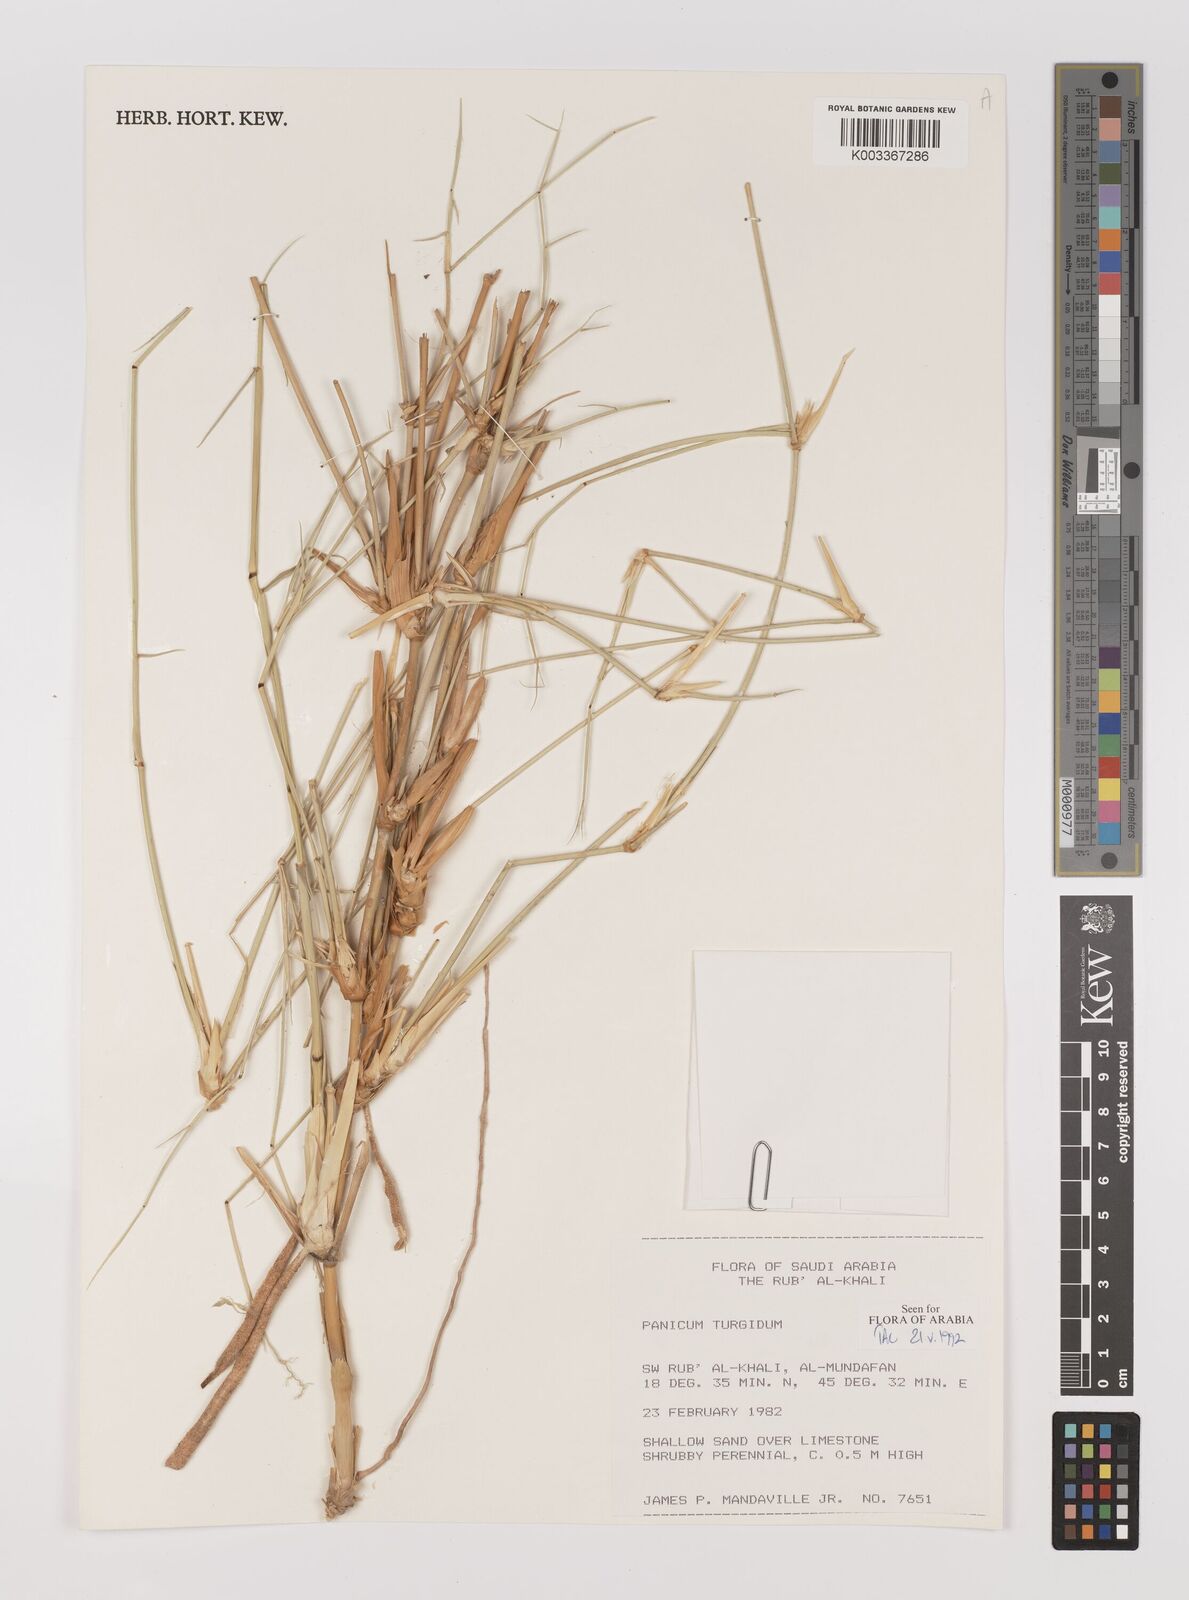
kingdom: Plantae
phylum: Tracheophyta
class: Liliopsida
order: Poales
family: Poaceae
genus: Panicum
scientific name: Panicum turgidum
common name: Desert grass
